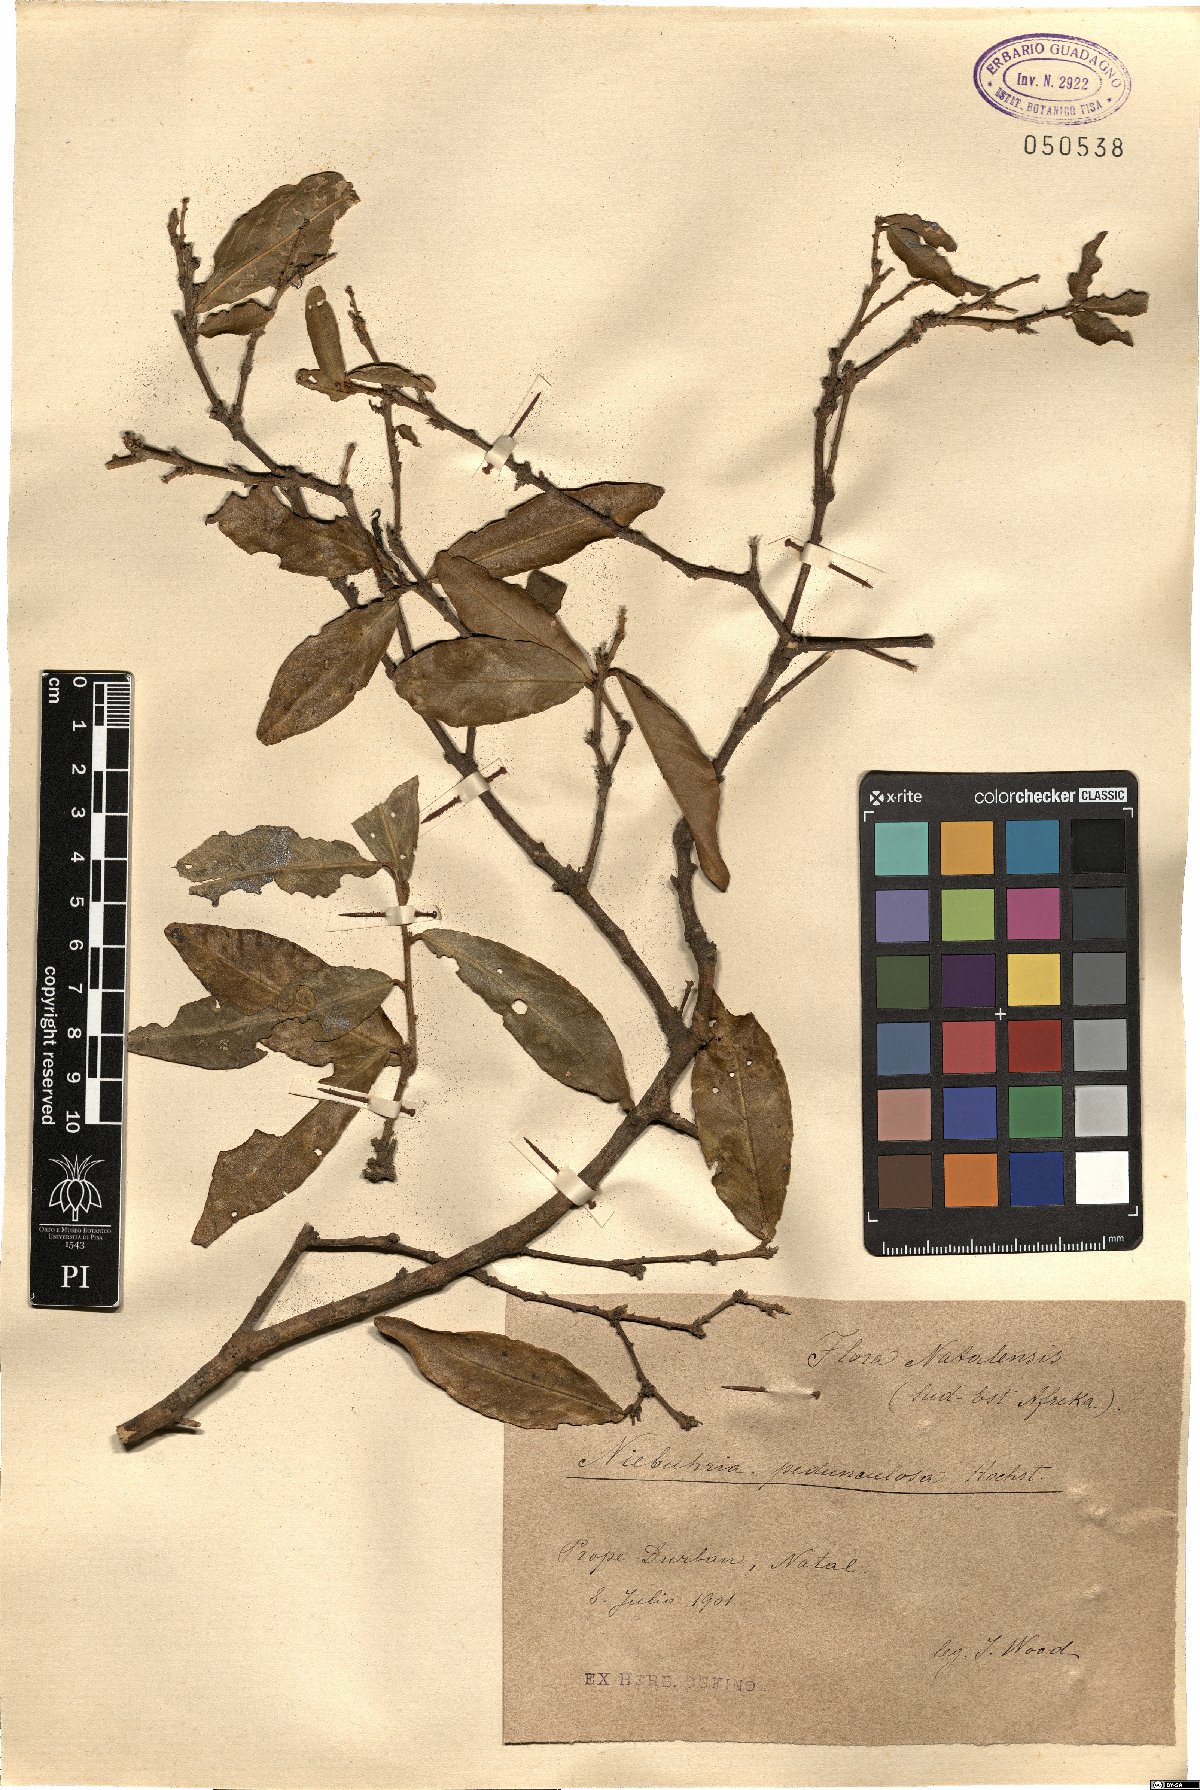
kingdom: Plantae
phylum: Tracheophyta
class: Magnoliopsida
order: Brassicales
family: Capparaceae
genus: Maerua
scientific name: Maerua racemulosa
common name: Forest bush-cherry
